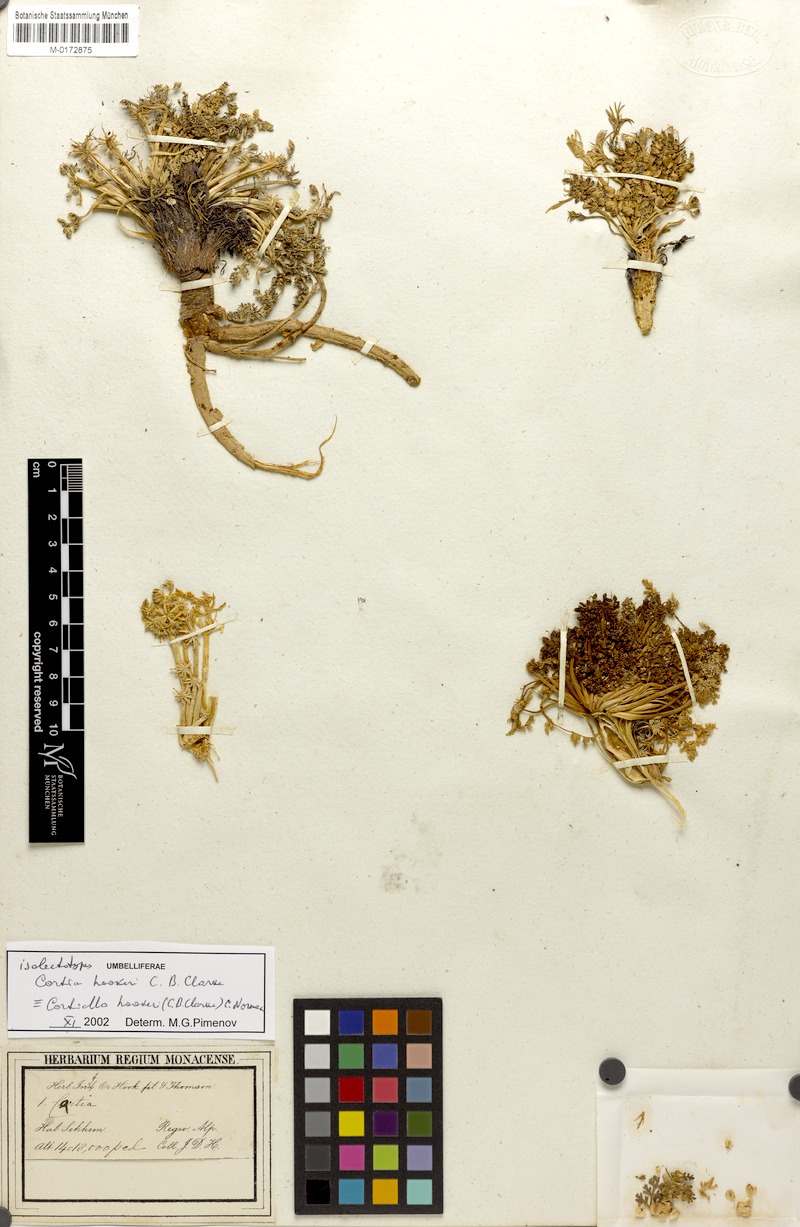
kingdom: Plantae
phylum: Tracheophyta
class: Magnoliopsida
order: Apiales
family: Apiaceae
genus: Cortiella
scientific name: Cortiella hookeri
